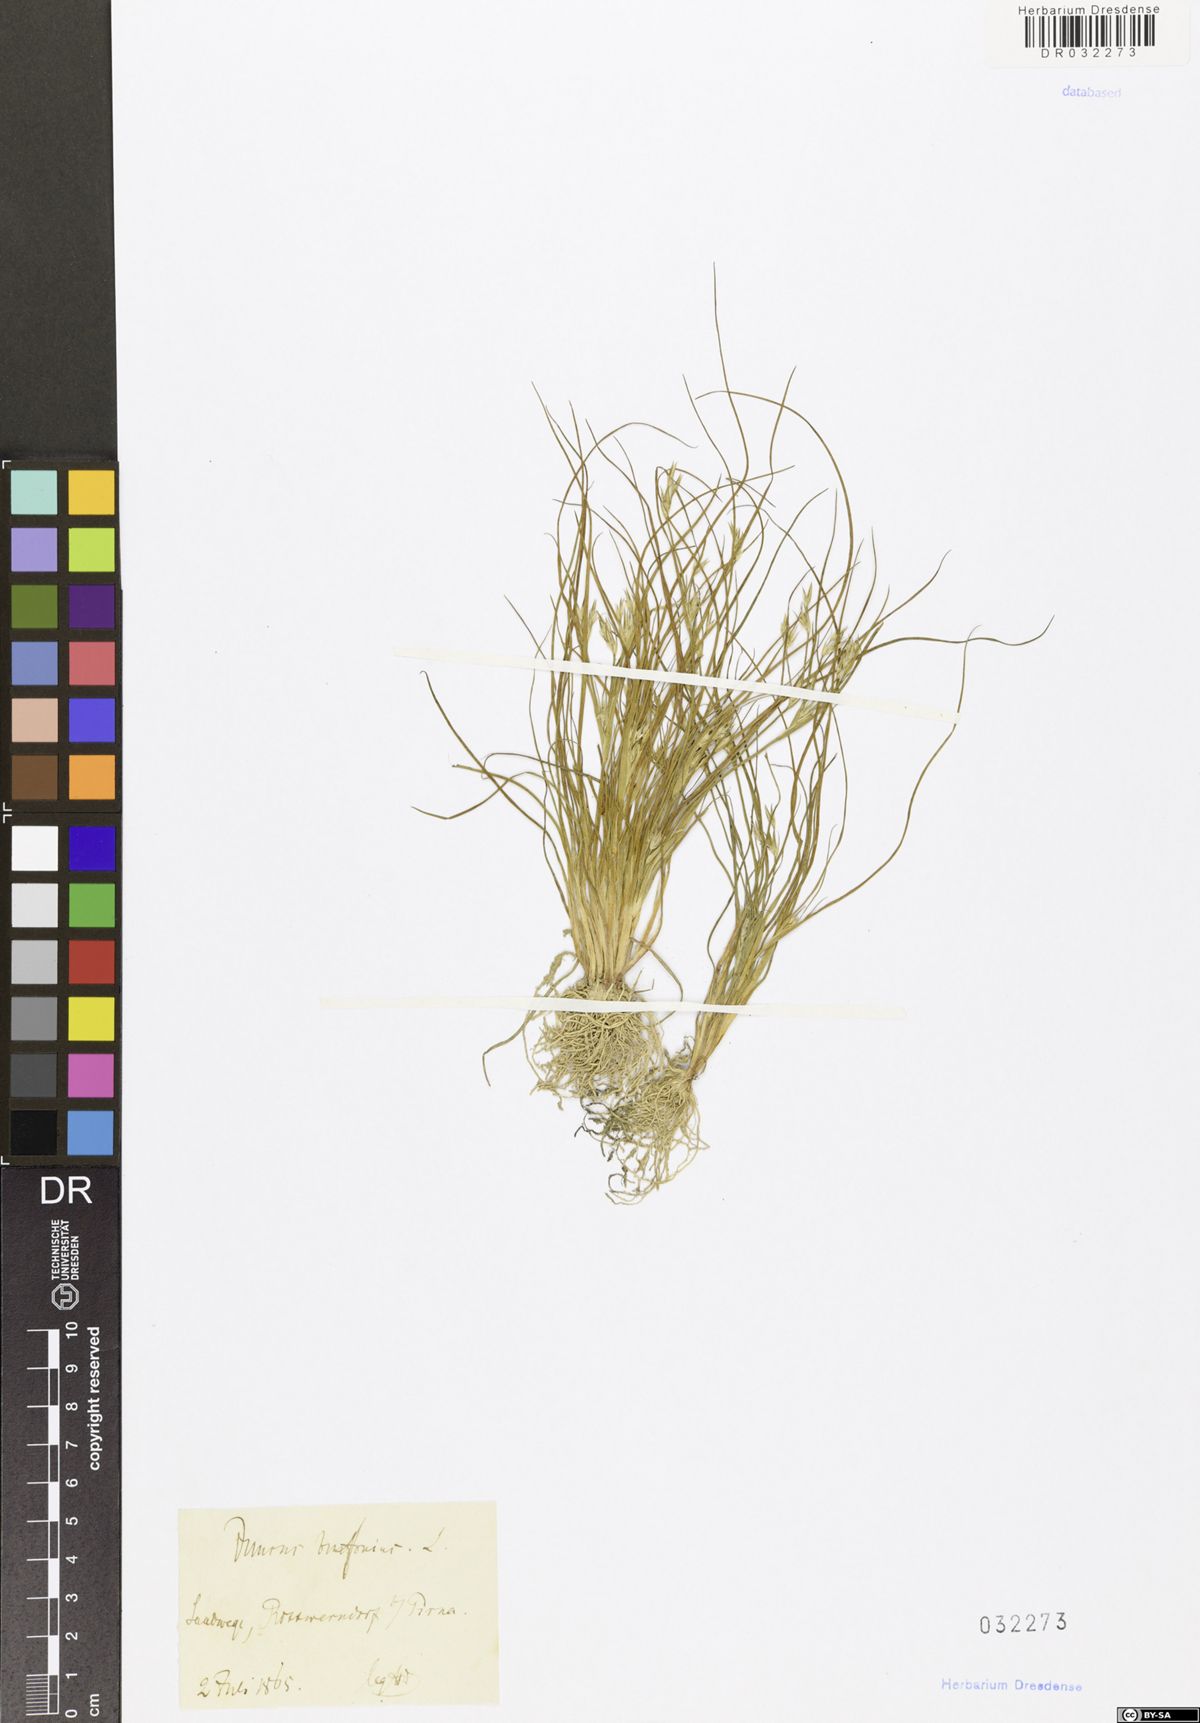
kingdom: Plantae
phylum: Tracheophyta
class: Liliopsida
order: Poales
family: Juncaceae
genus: Juncus
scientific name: Juncus bufonius
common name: Toad rush
